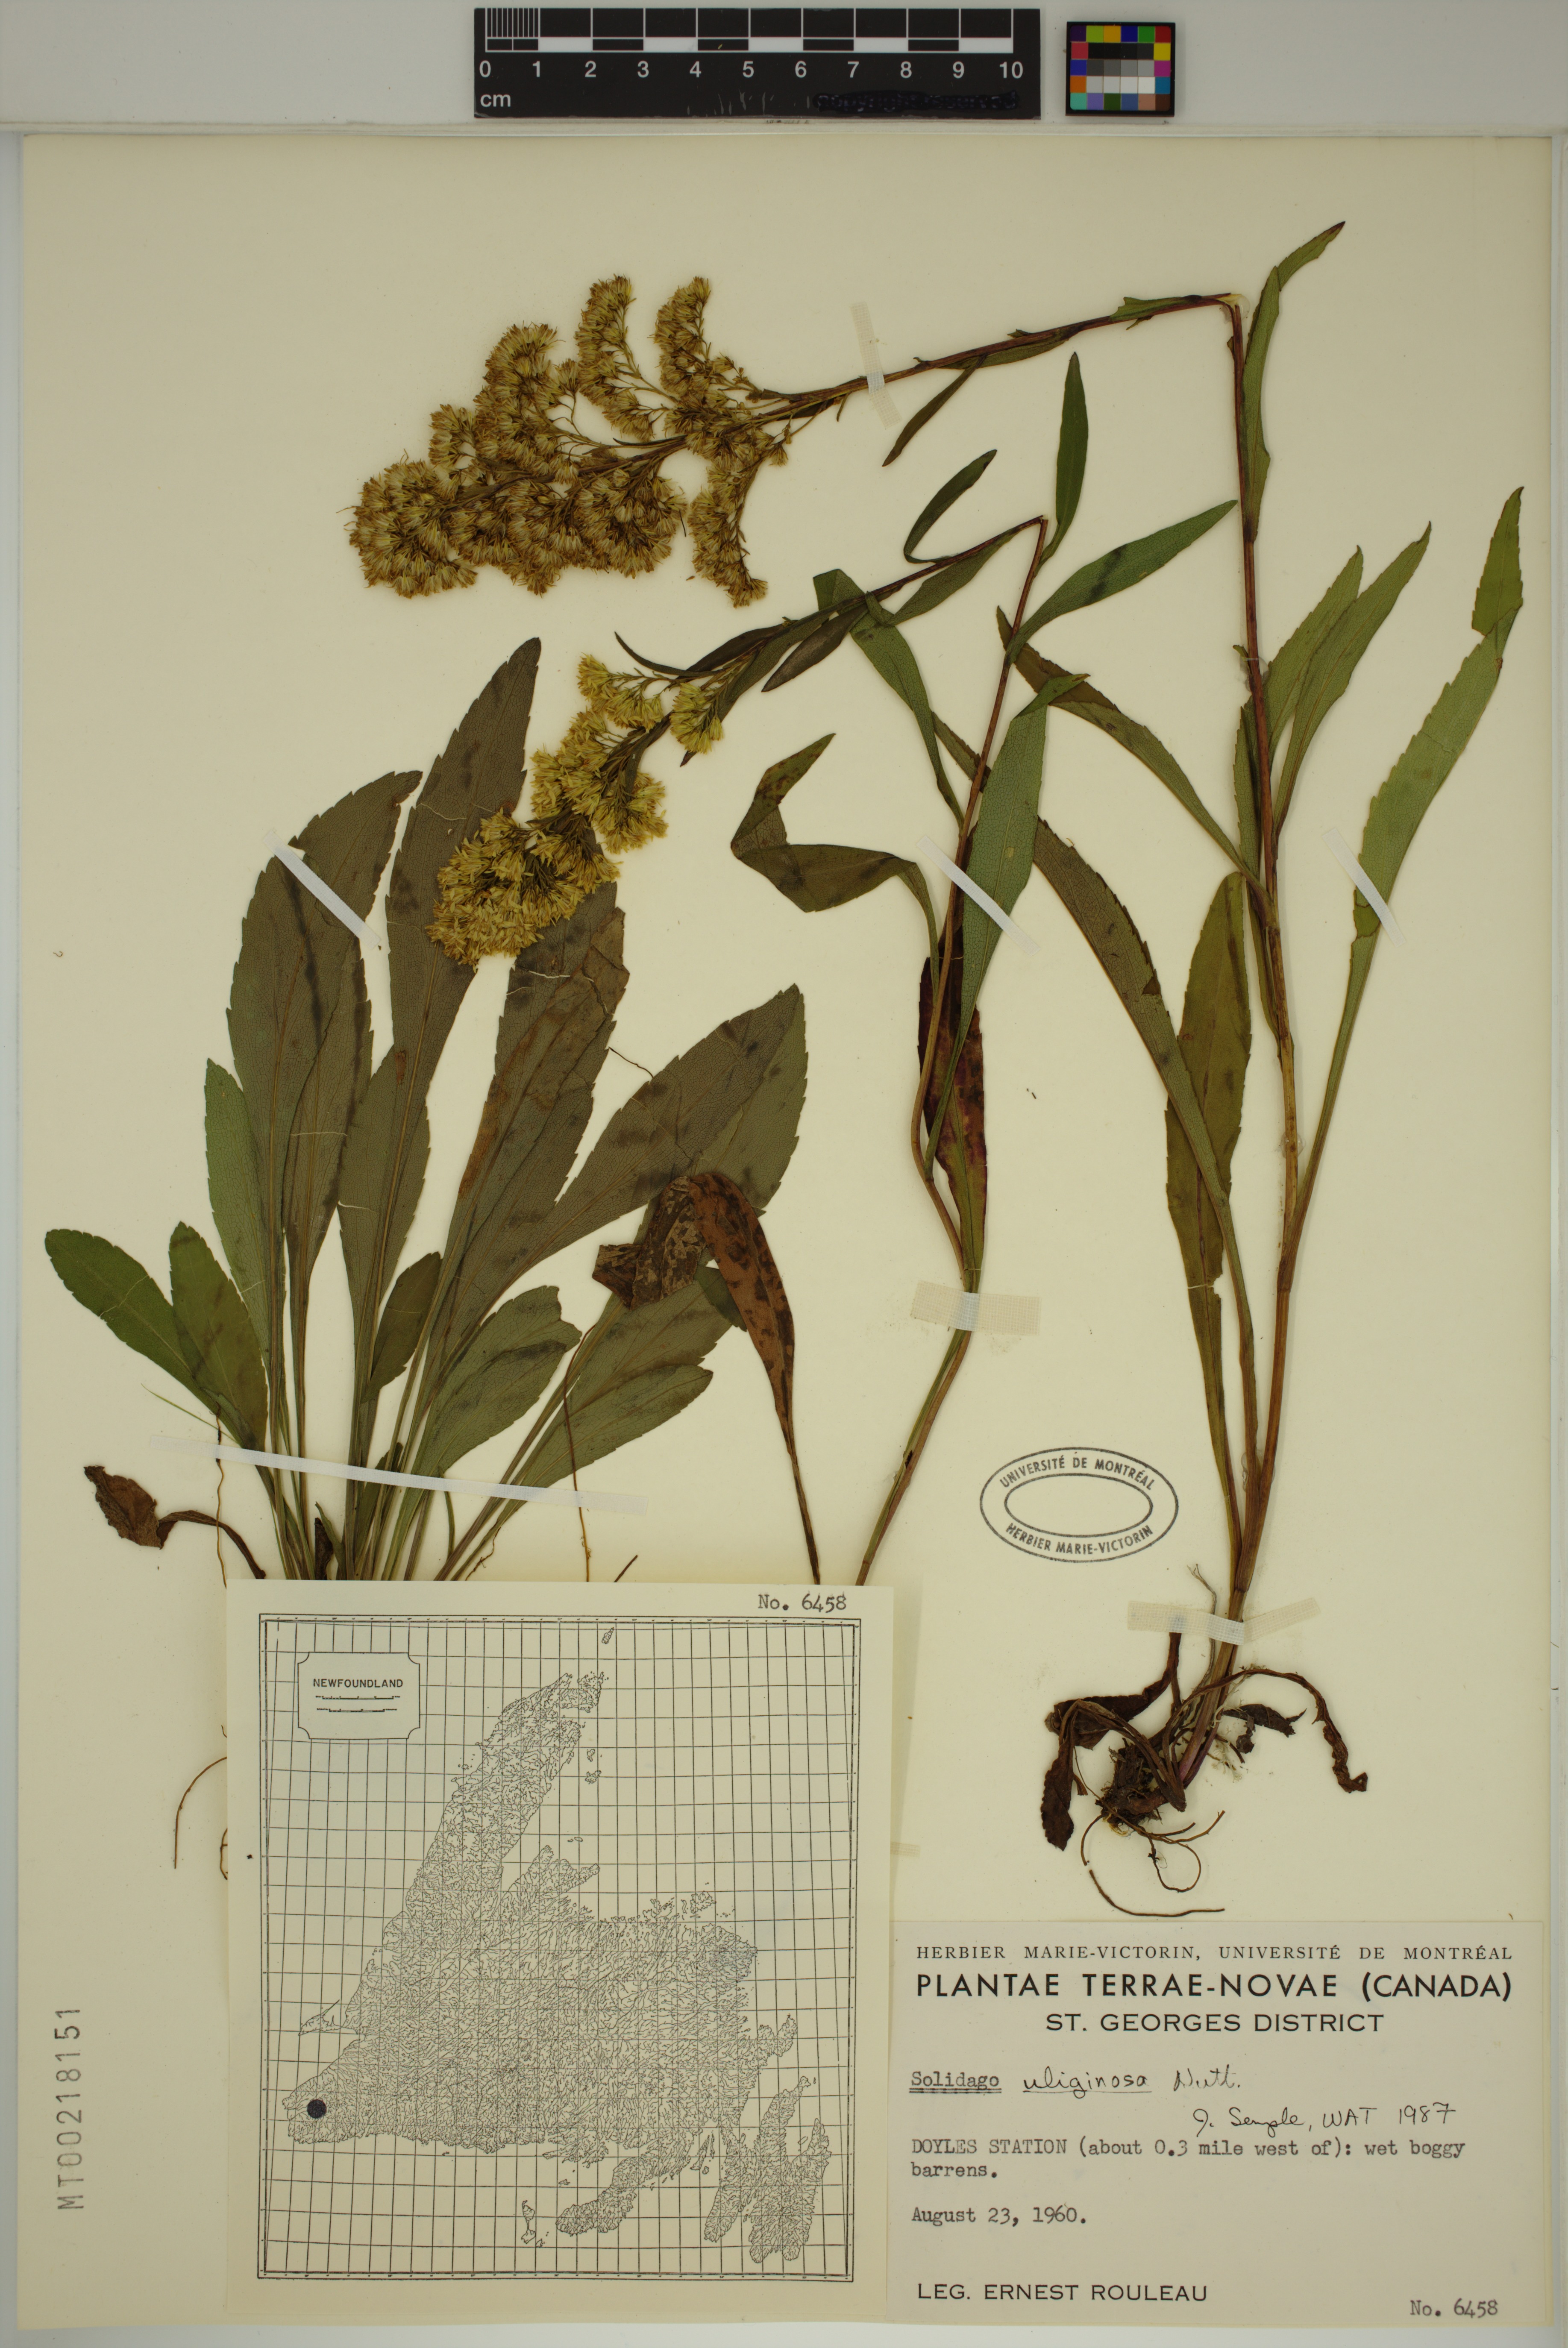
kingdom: Plantae
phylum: Tracheophyta
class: Magnoliopsida
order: Asterales
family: Asteraceae
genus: Solidago
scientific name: Solidago uliginosa
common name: Bog goldenrod
